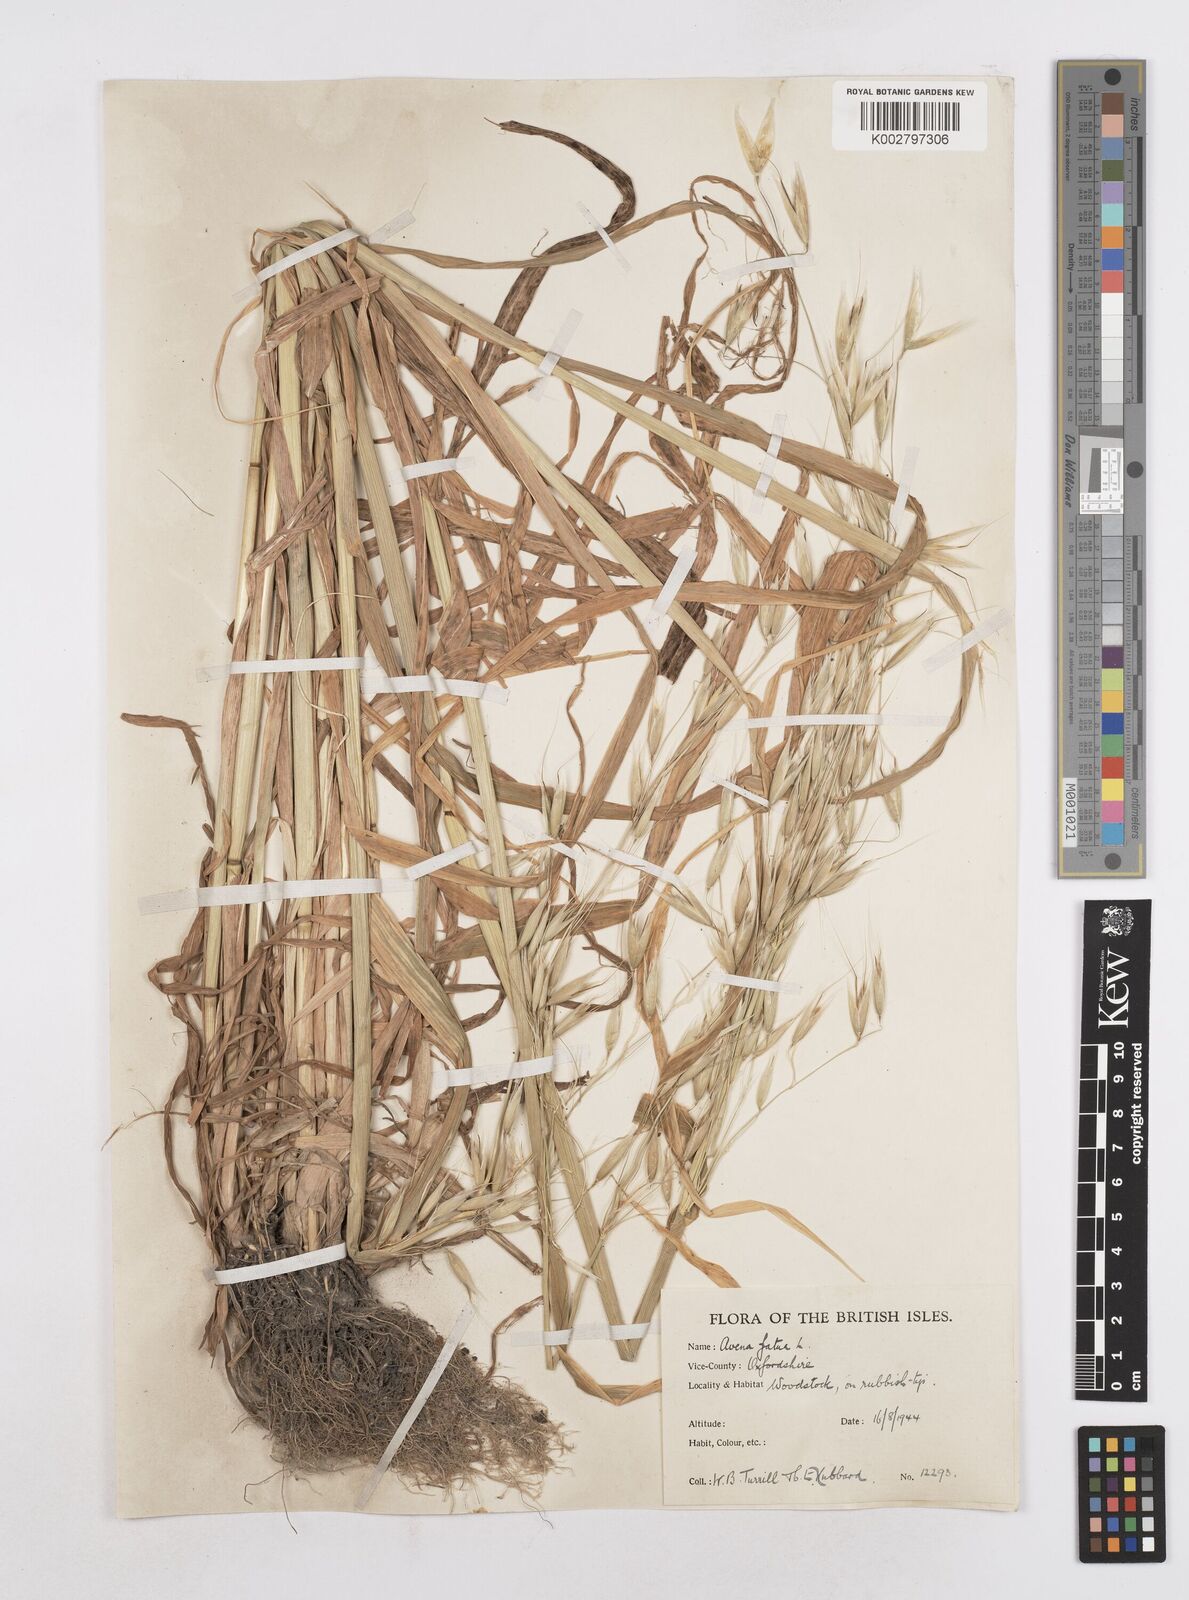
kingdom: Plantae
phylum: Tracheophyta
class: Liliopsida
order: Poales
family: Poaceae
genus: Avena
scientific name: Avena fatua
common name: Wild oat
